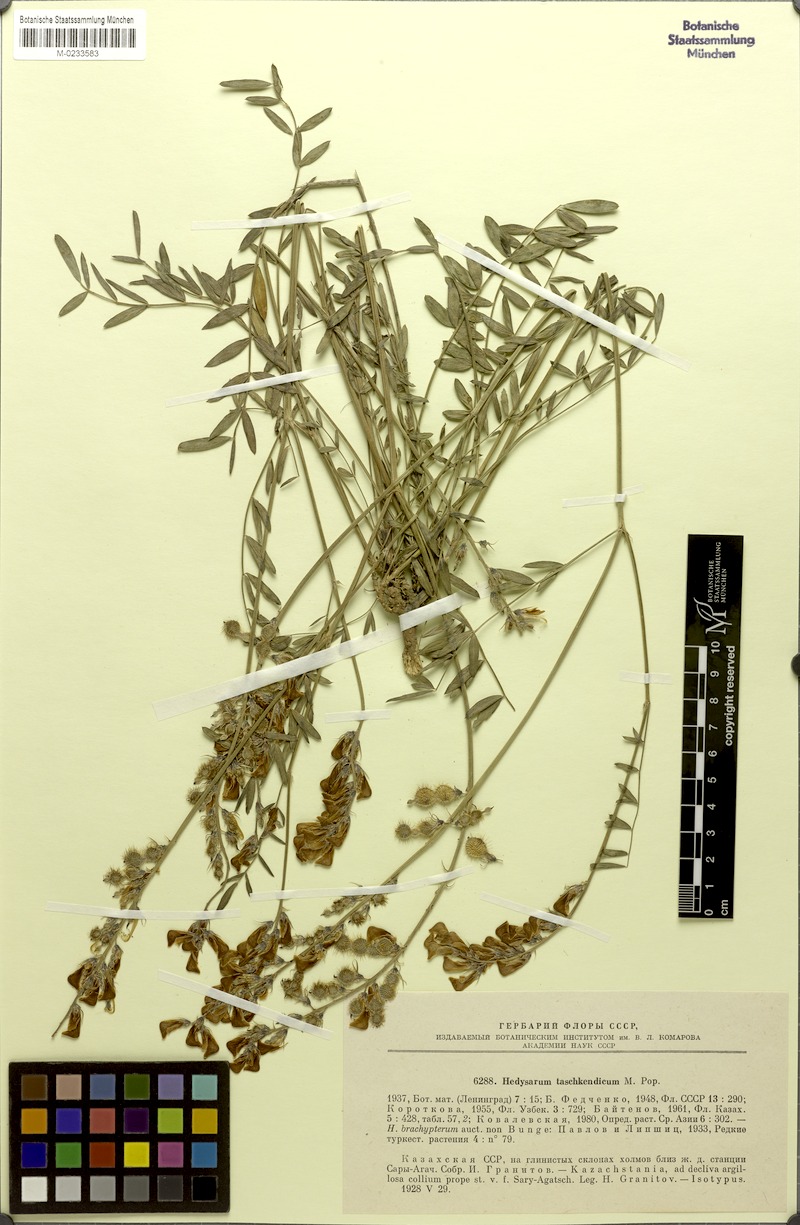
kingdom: Plantae
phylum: Tracheophyta
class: Magnoliopsida
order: Fabales
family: Fabaceae
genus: Hedysarum
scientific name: Hedysarum taschkendicum
